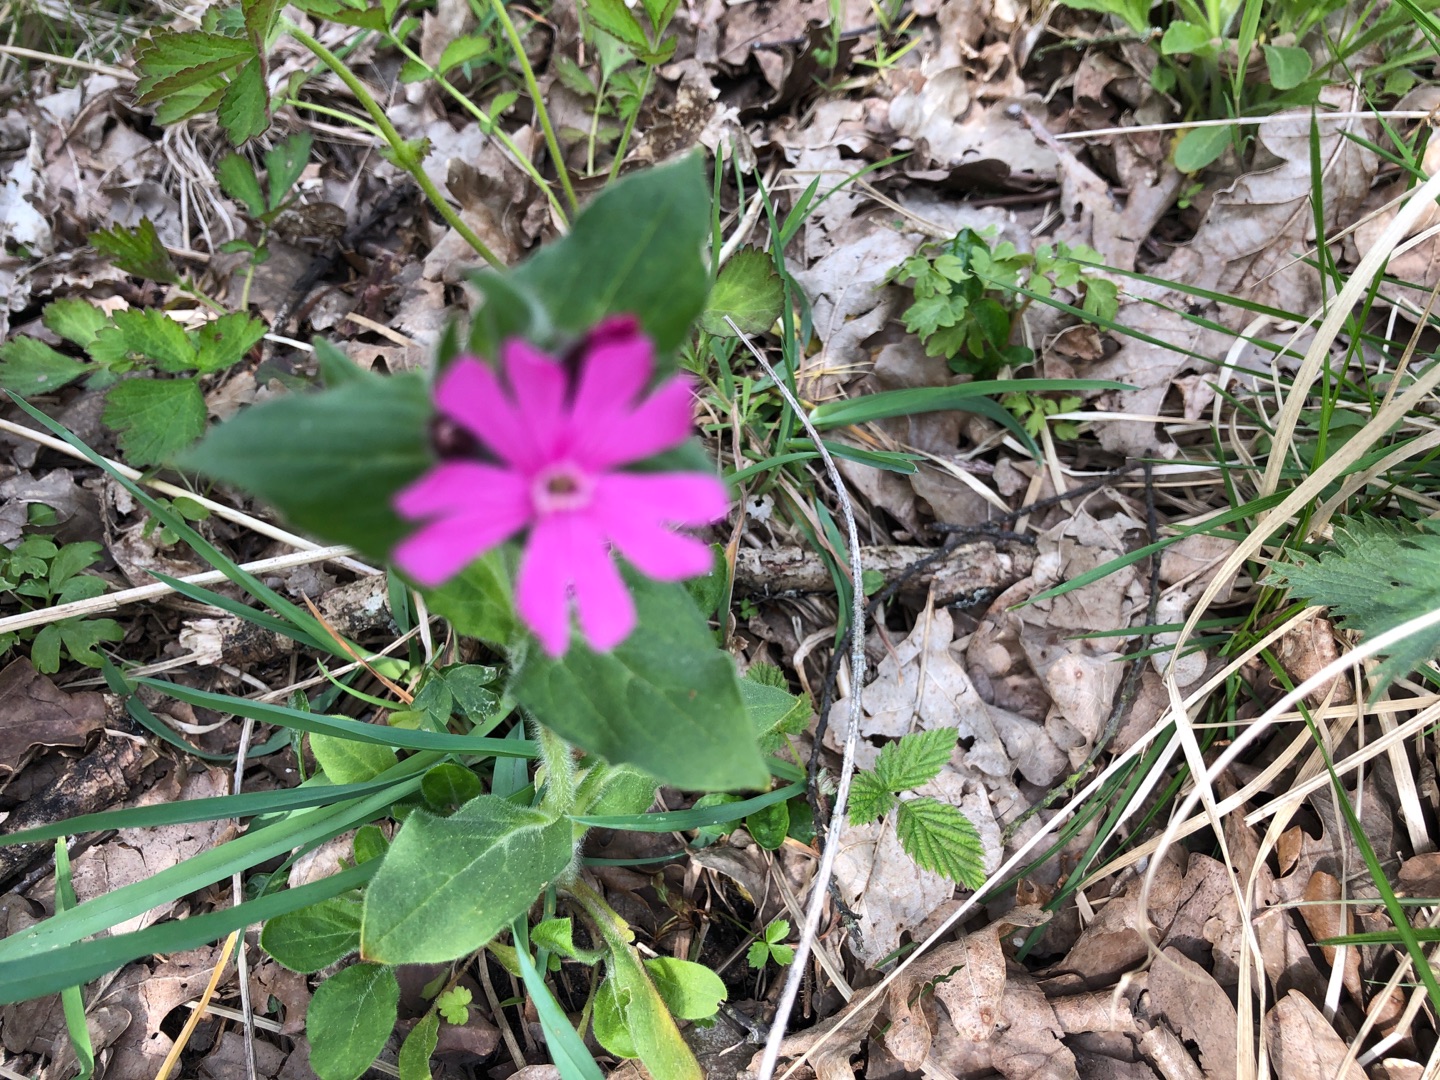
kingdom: Plantae
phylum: Tracheophyta
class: Magnoliopsida
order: Caryophyllales
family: Caryophyllaceae
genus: Silene
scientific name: Silene dioica
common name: Dagpragtstjerne
